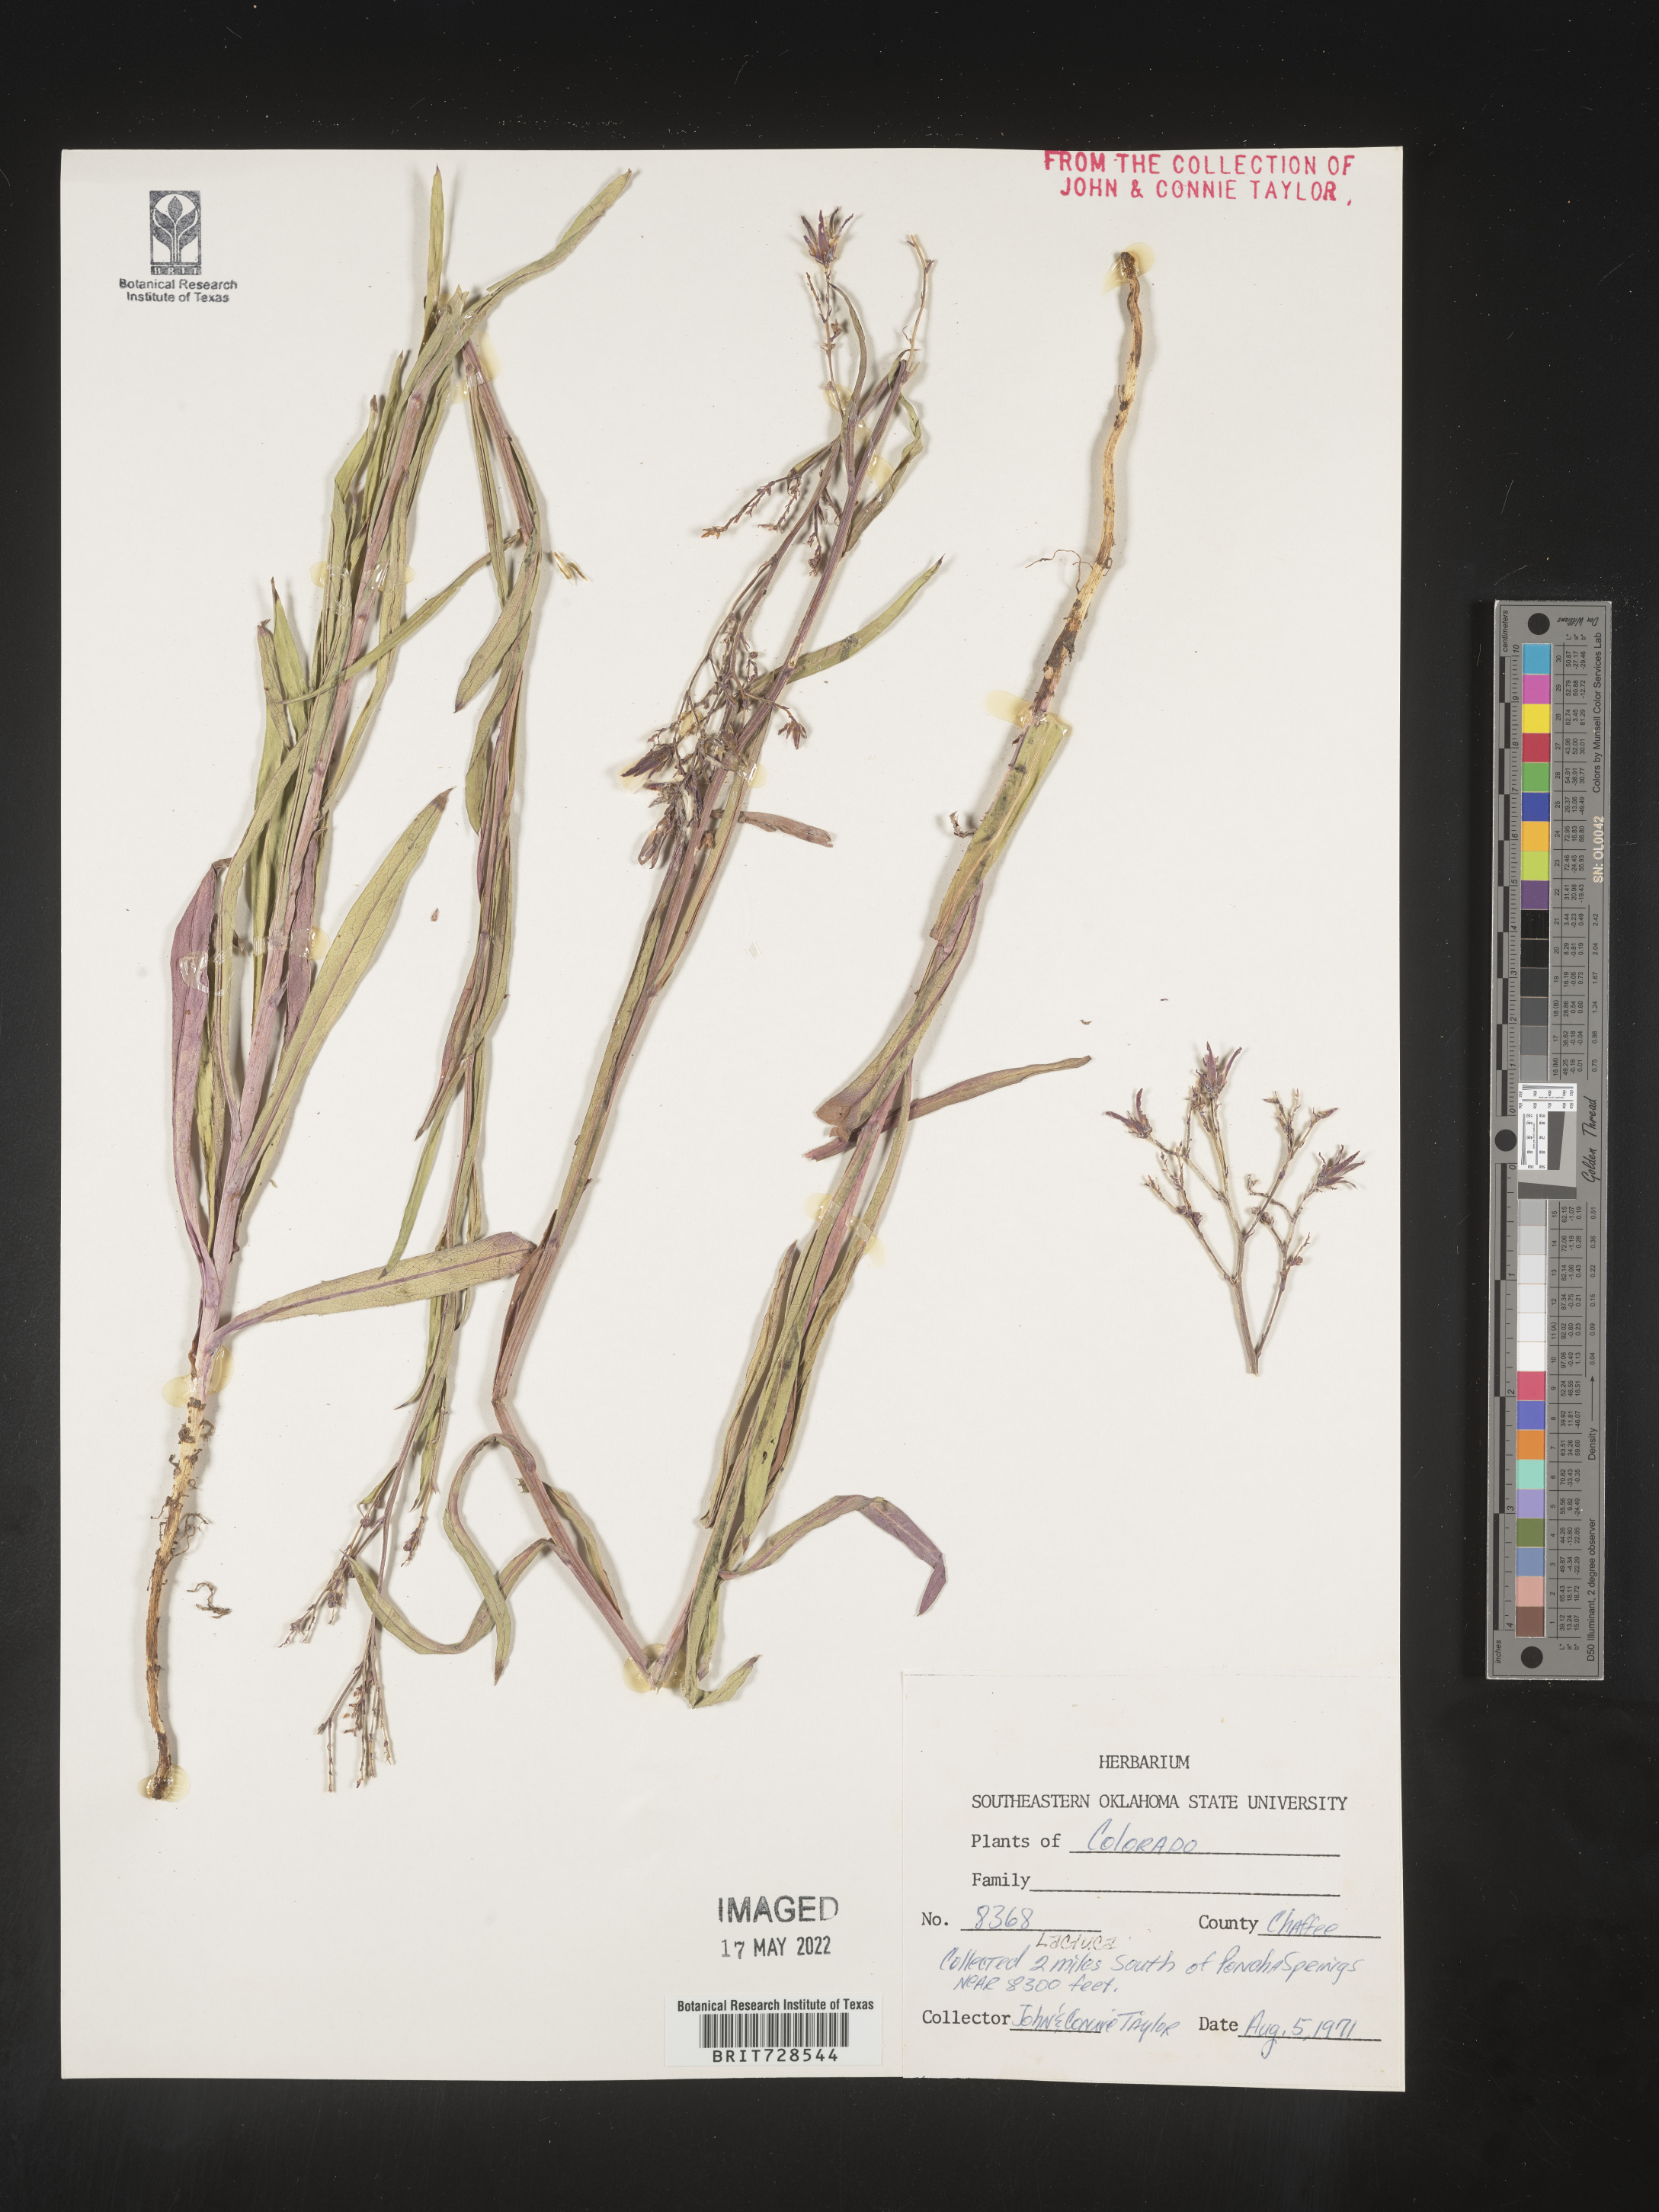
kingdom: Plantae
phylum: Tracheophyta
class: Magnoliopsida
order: Asterales
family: Asteraceae
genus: Lactuca
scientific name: Lactuca
